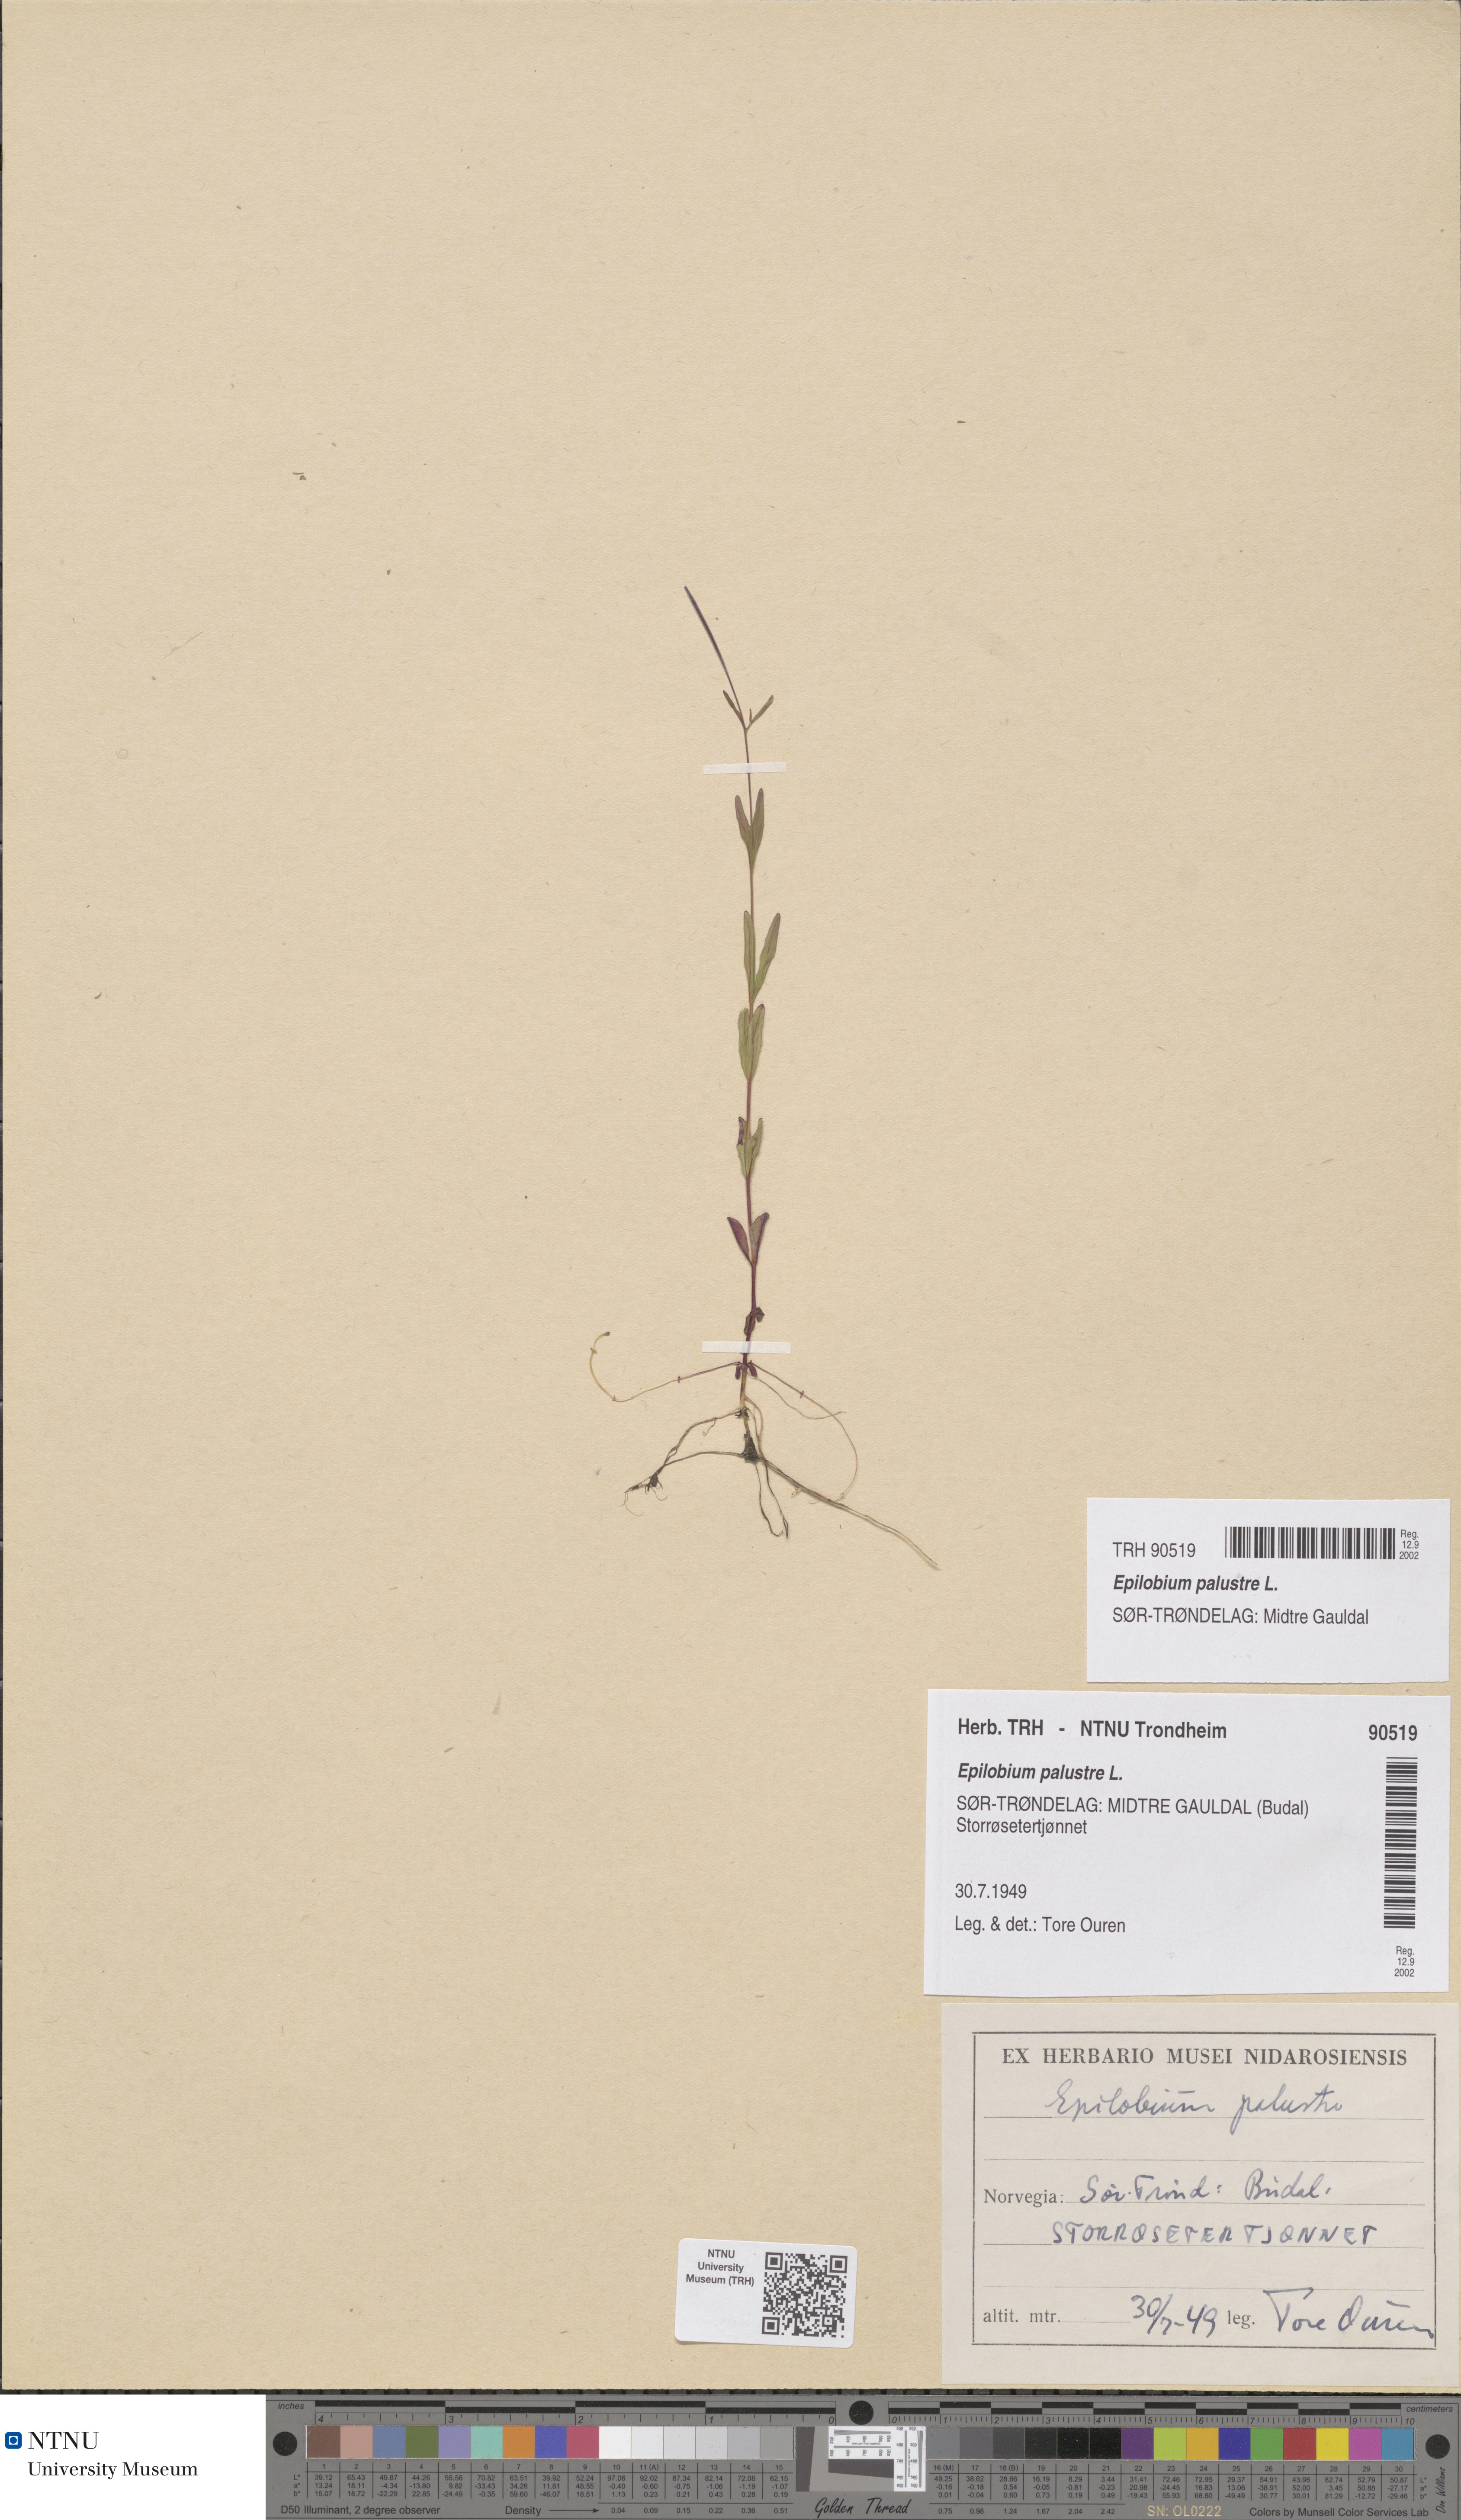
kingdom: Plantae
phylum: Tracheophyta
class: Magnoliopsida
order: Myrtales
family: Onagraceae
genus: Epilobium
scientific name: Epilobium palustre
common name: Marsh willowherb
